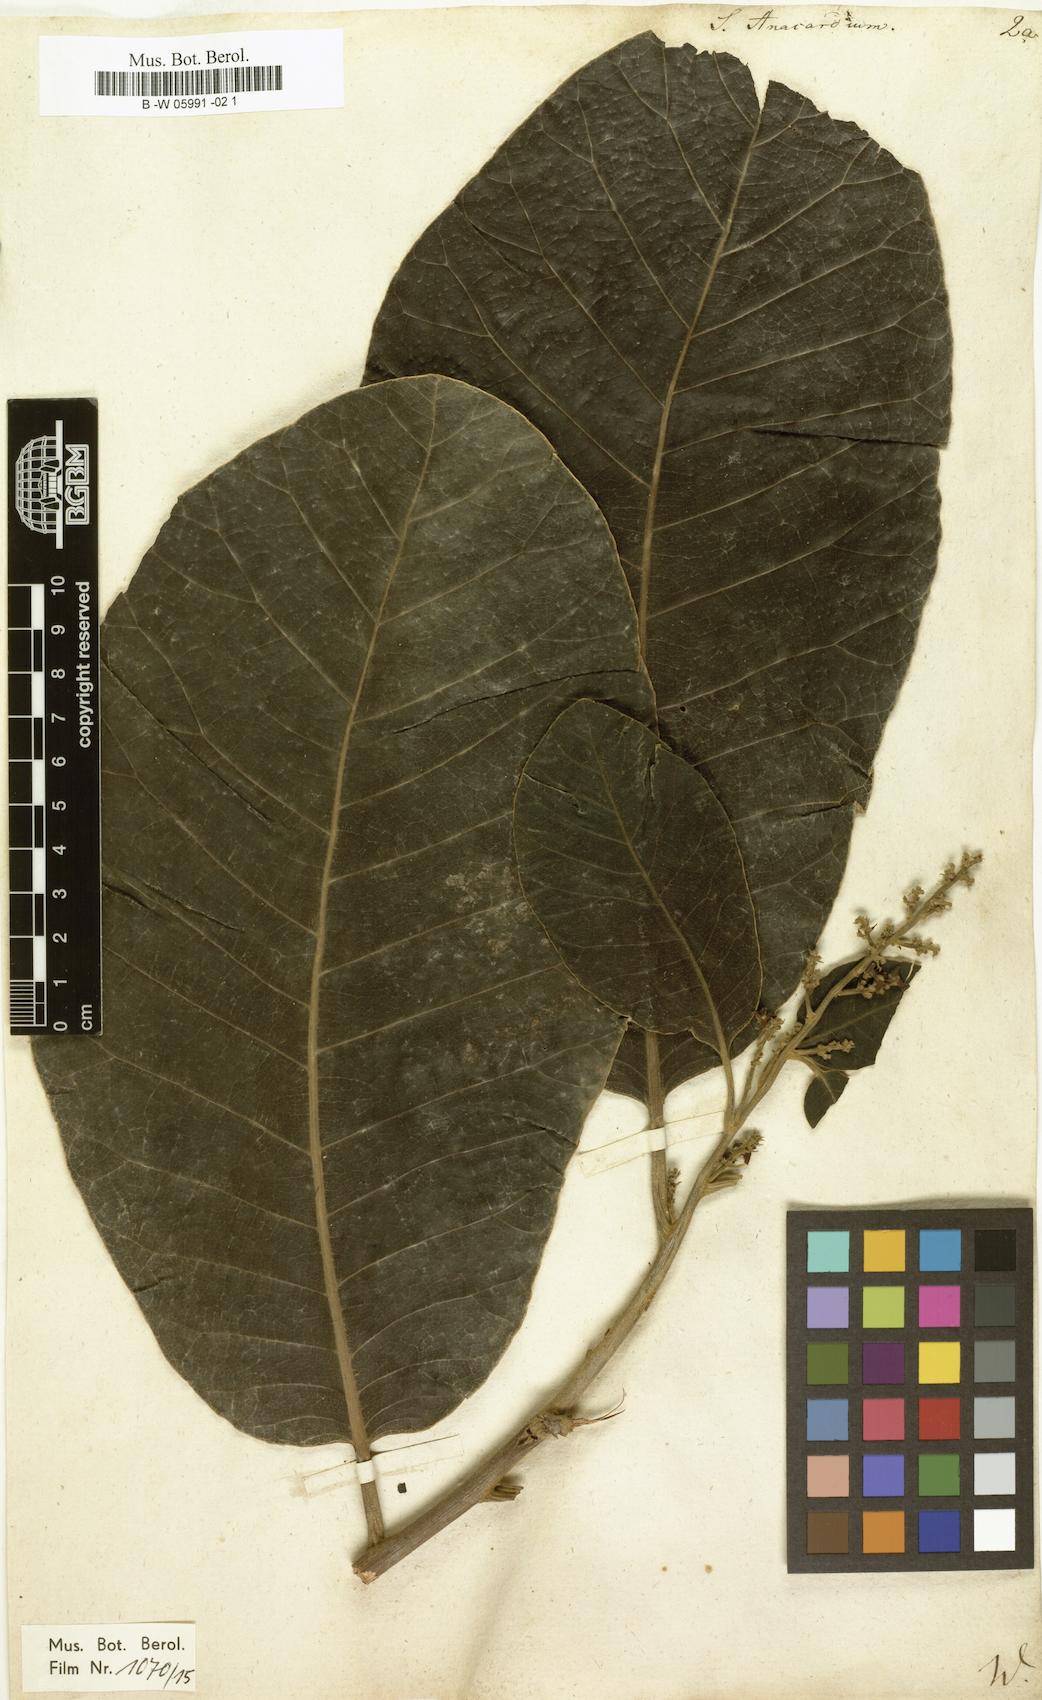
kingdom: Plantae
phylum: Tracheophyta
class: Magnoliopsida
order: Sapindales
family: Anacardiaceae
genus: Semecarpus
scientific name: Semecarpus anacardium
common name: Marking nut-tree
